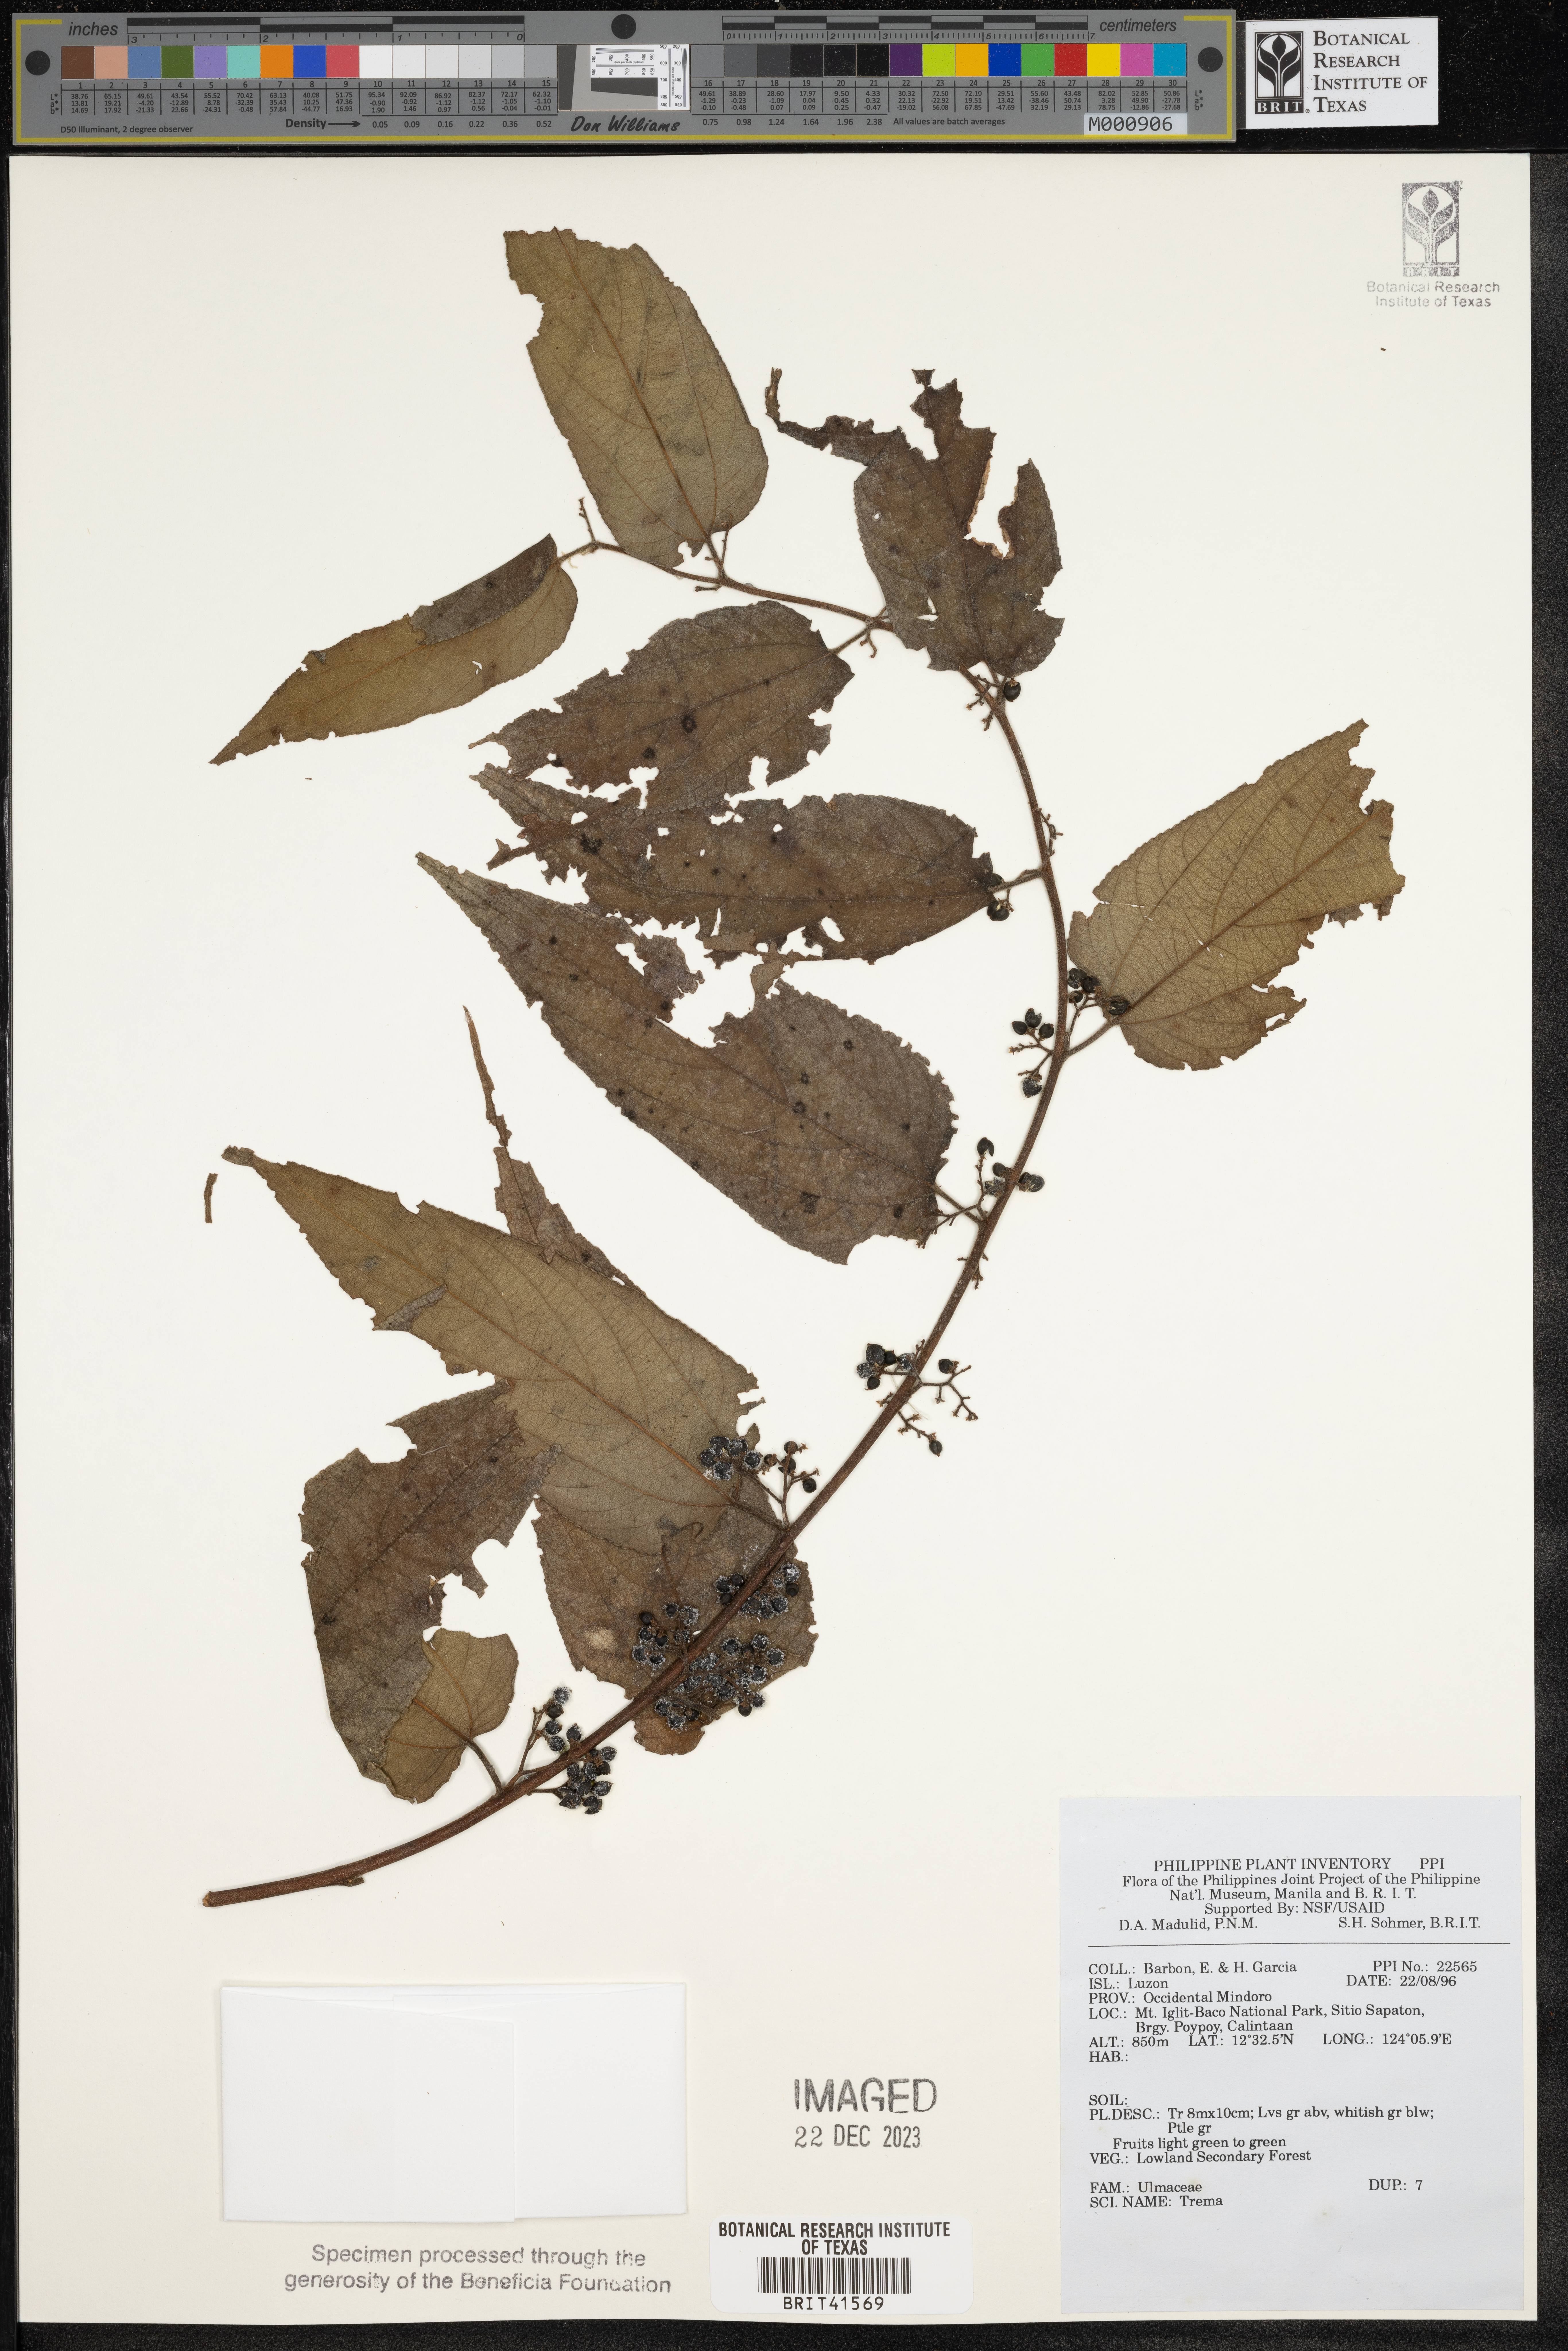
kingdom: Plantae
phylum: Tracheophyta
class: Magnoliopsida
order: Rosales
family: Cannabaceae
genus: Trema
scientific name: Trema
